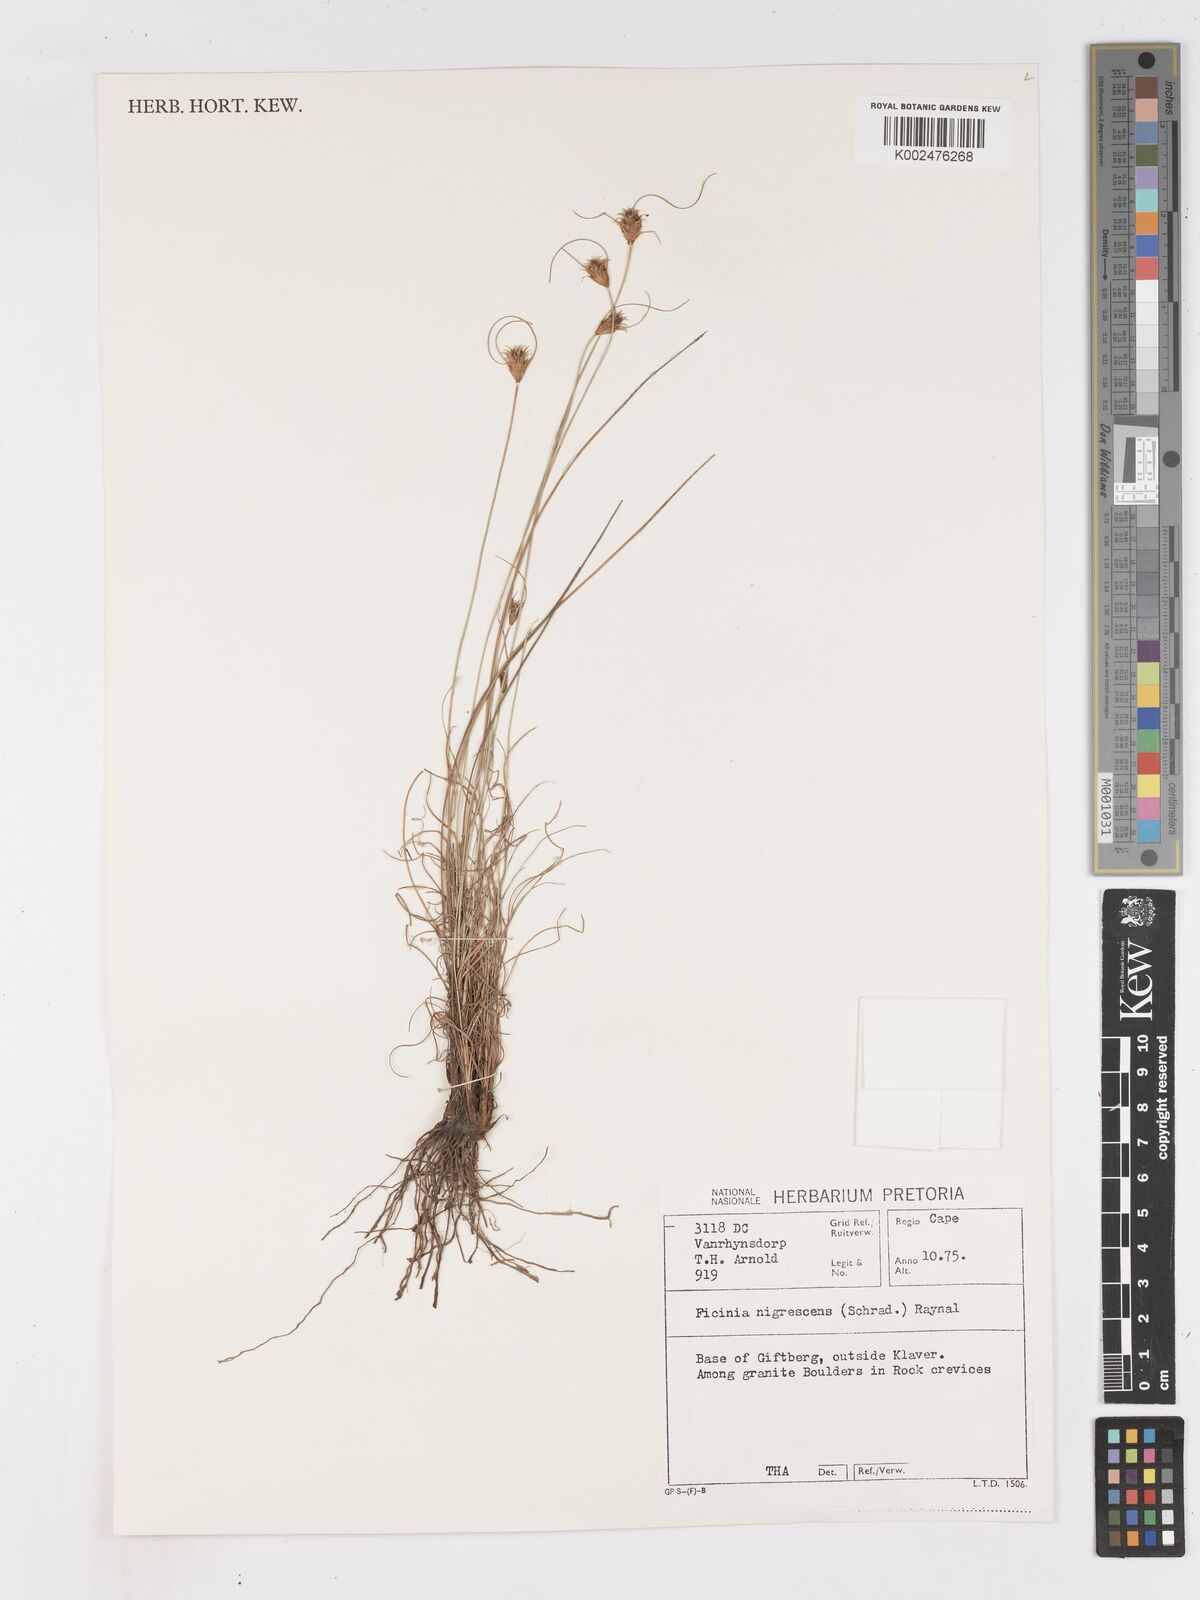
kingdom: Plantae
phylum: Tracheophyta
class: Liliopsida
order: Poales
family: Cyperaceae
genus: Ficinia
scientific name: Ficinia nigrescens
